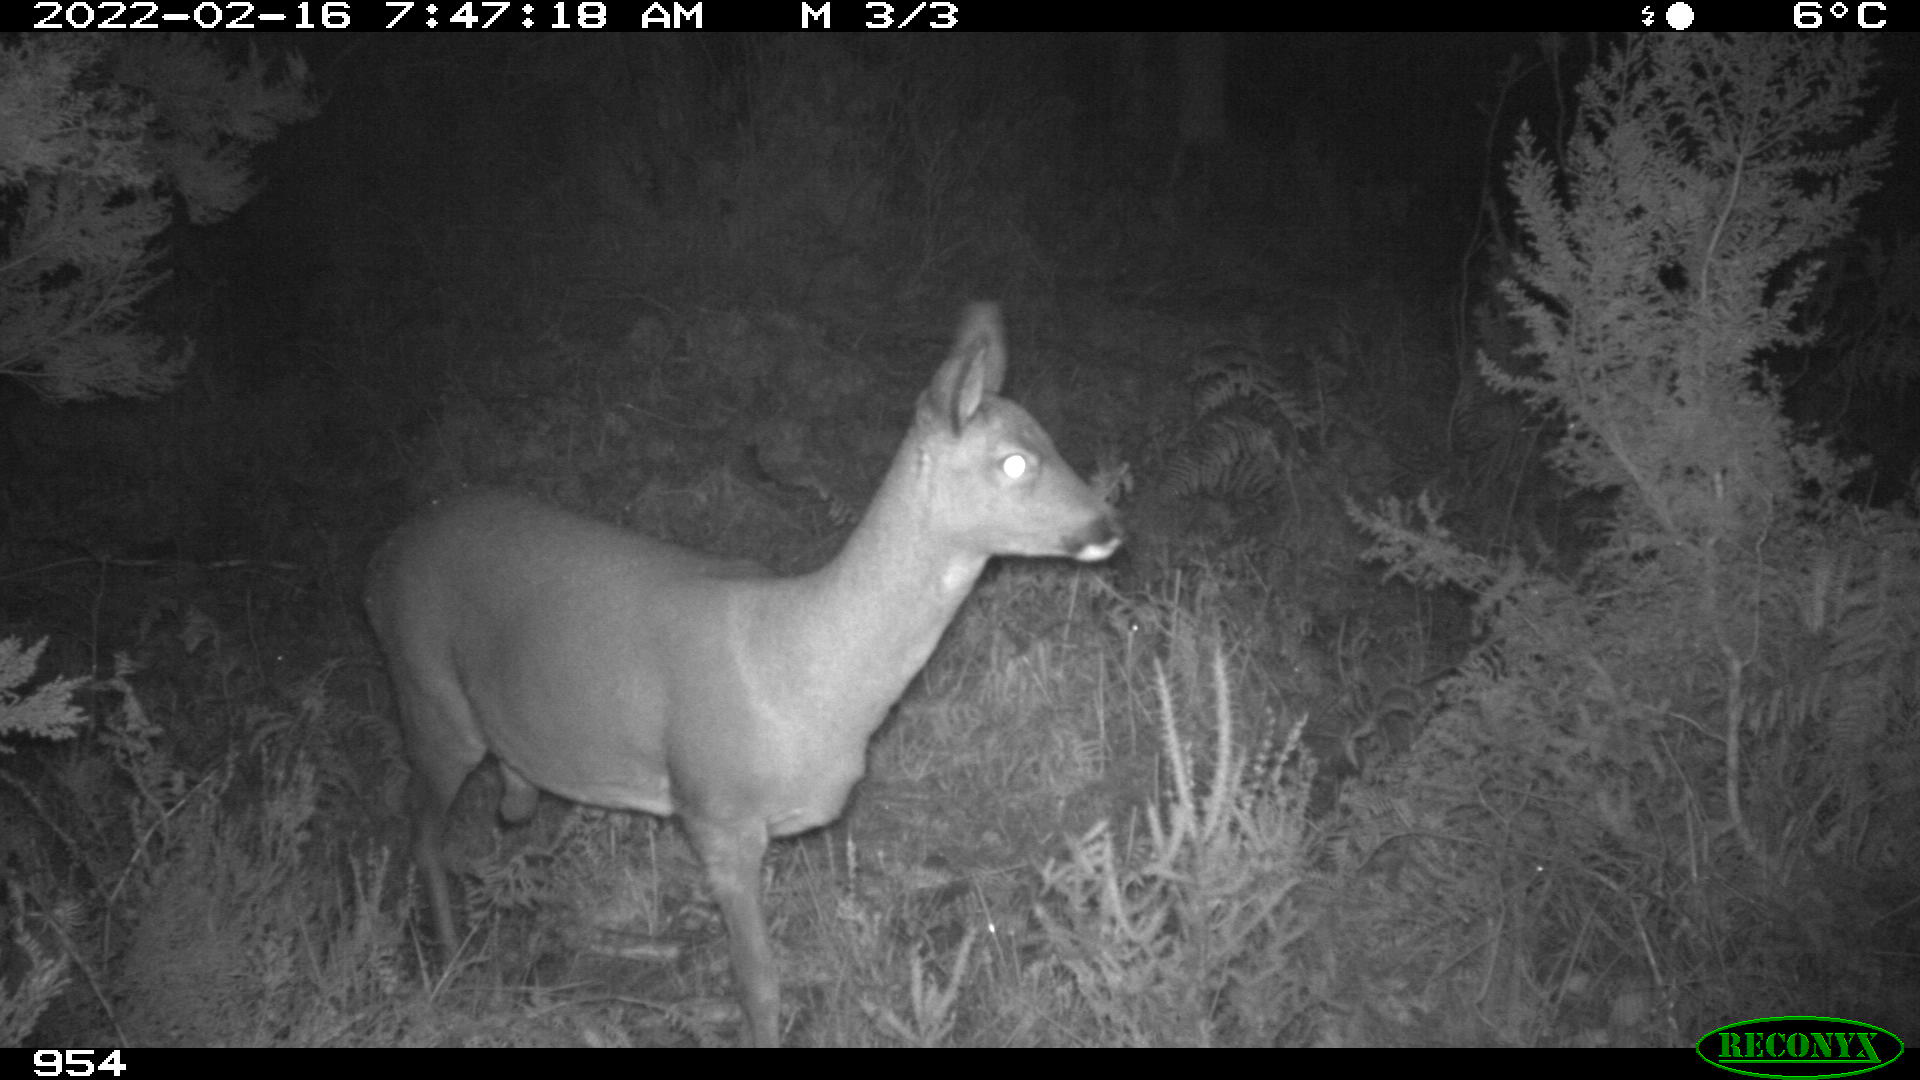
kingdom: Animalia
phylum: Chordata
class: Mammalia
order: Artiodactyla
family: Cervidae
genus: Capreolus
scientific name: Capreolus capreolus
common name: Western roe deer
